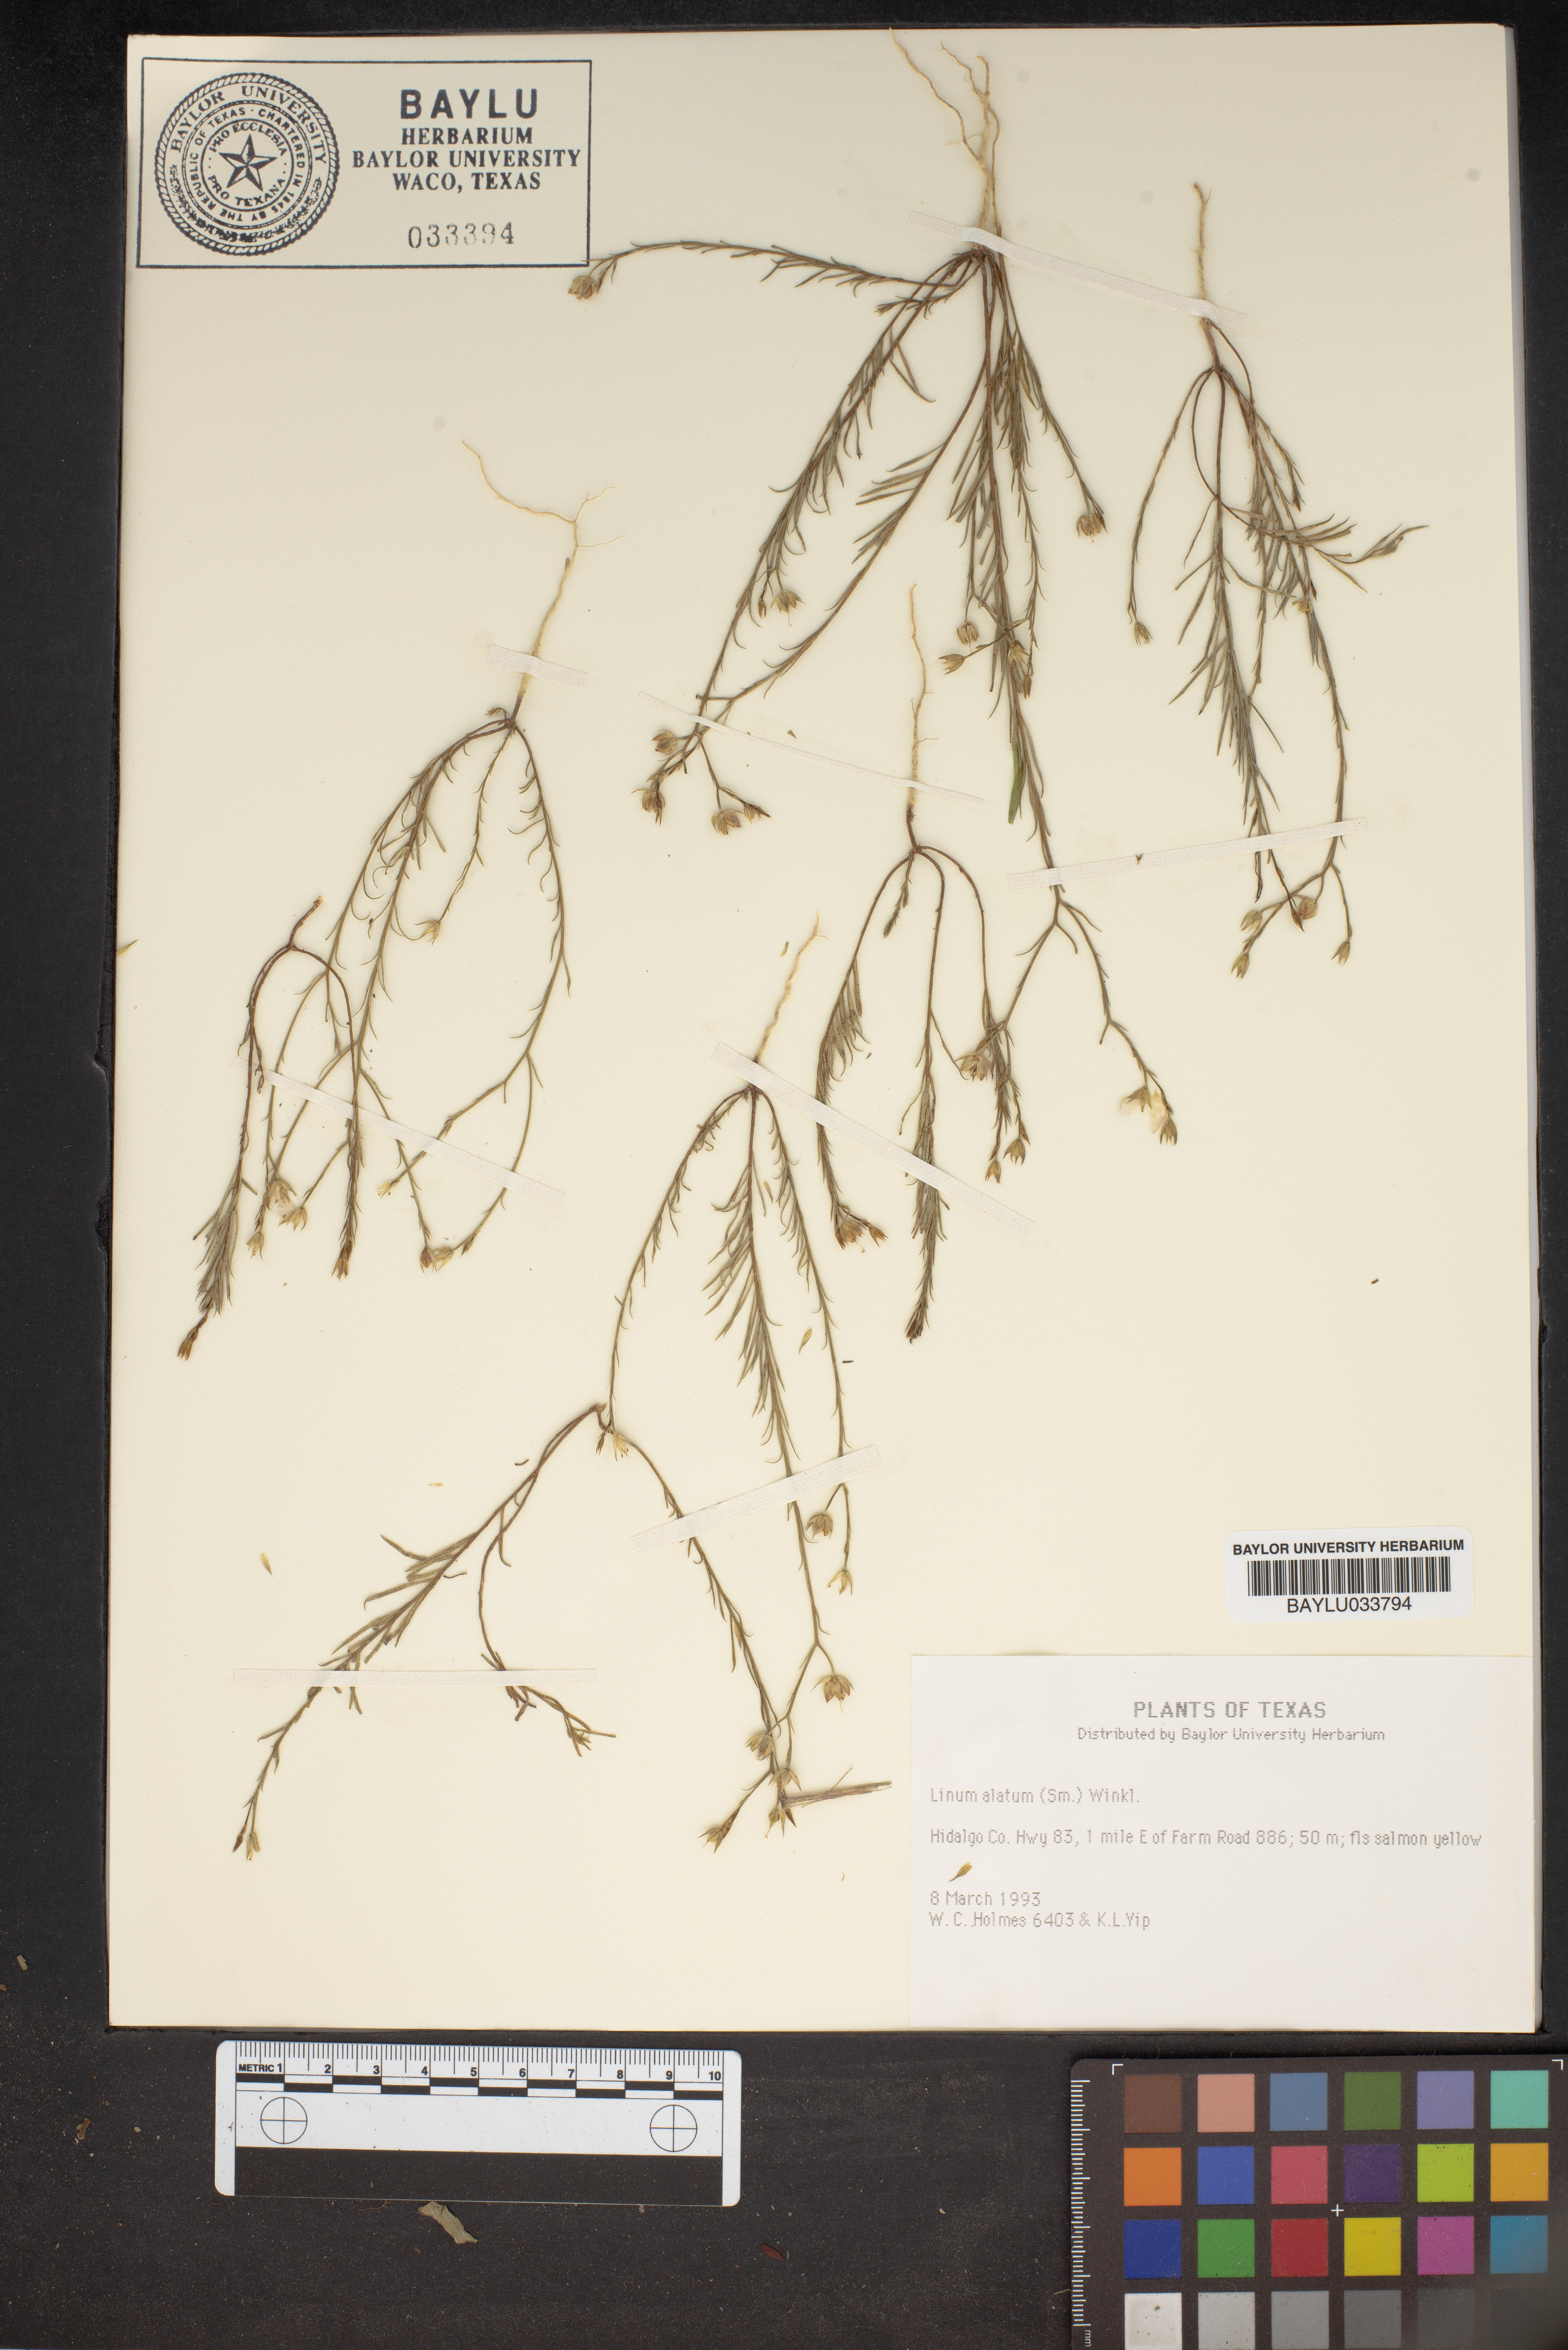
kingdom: Plantae
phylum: Tracheophyta
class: Magnoliopsida
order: Malpighiales
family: Linaceae
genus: Linum
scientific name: Linum alatum
